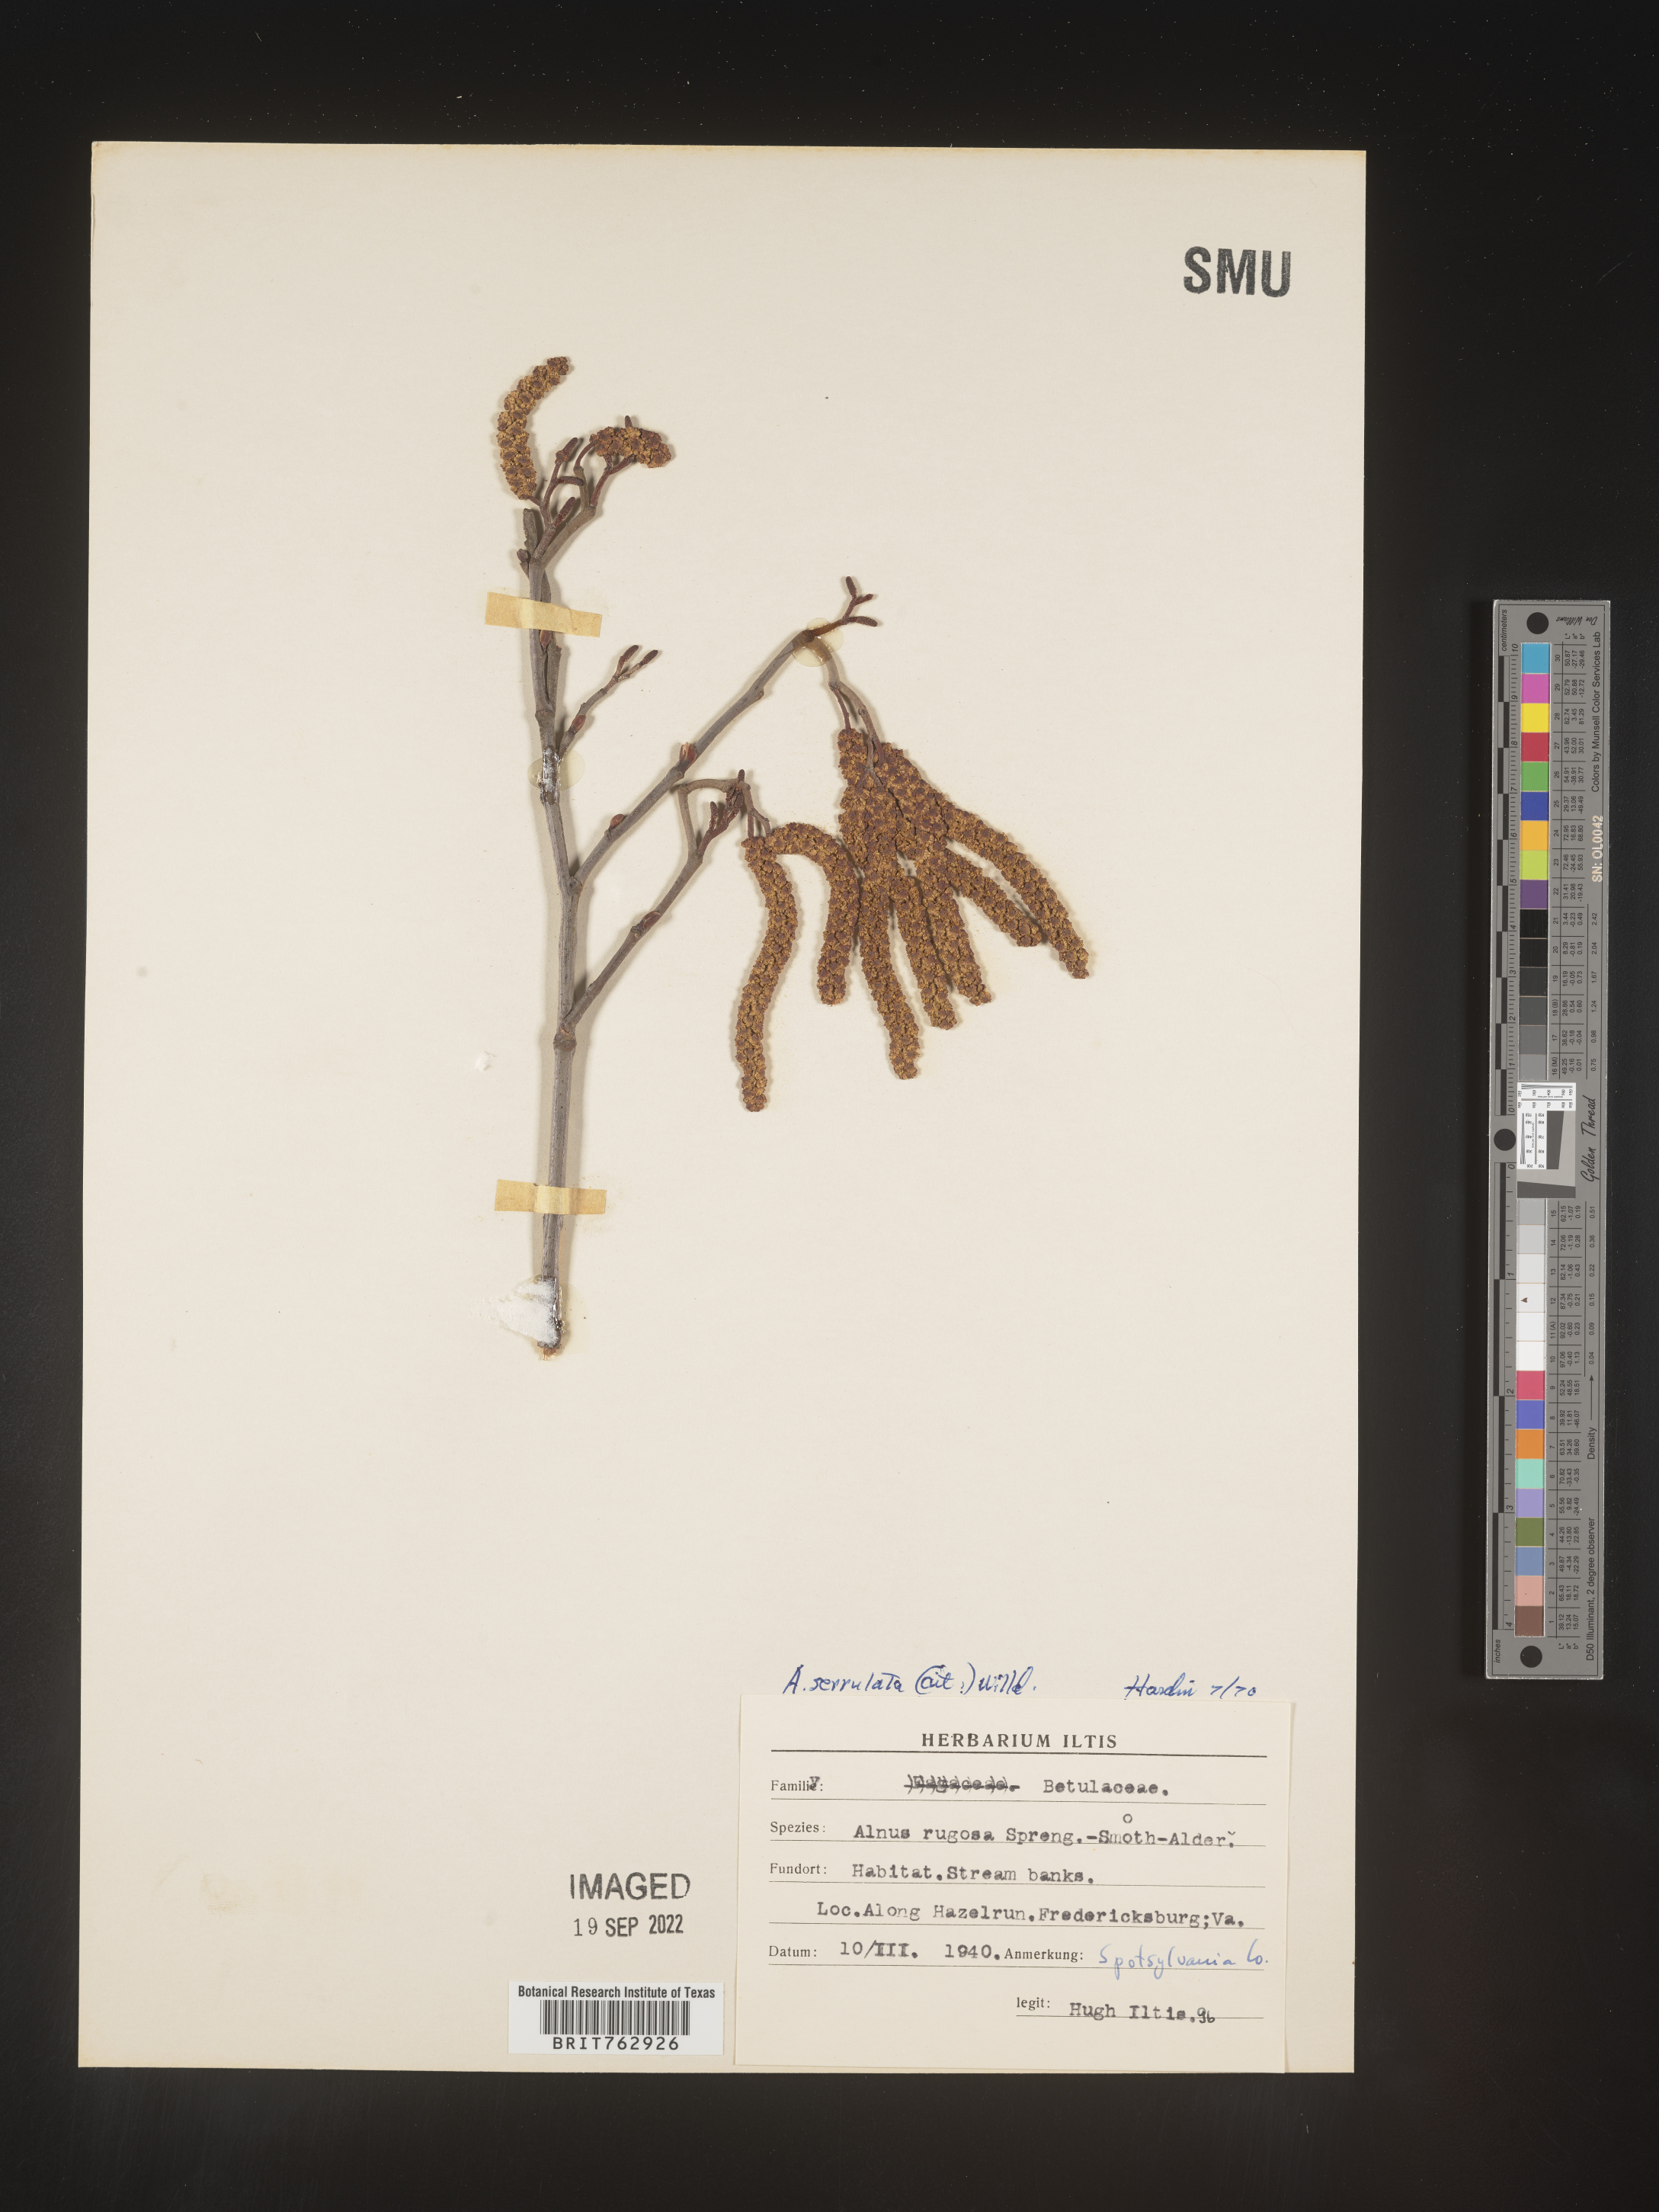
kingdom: Plantae
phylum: Tracheophyta
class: Magnoliopsida
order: Fagales
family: Betulaceae
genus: Alnus
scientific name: Alnus serrulata
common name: Hazel alder
